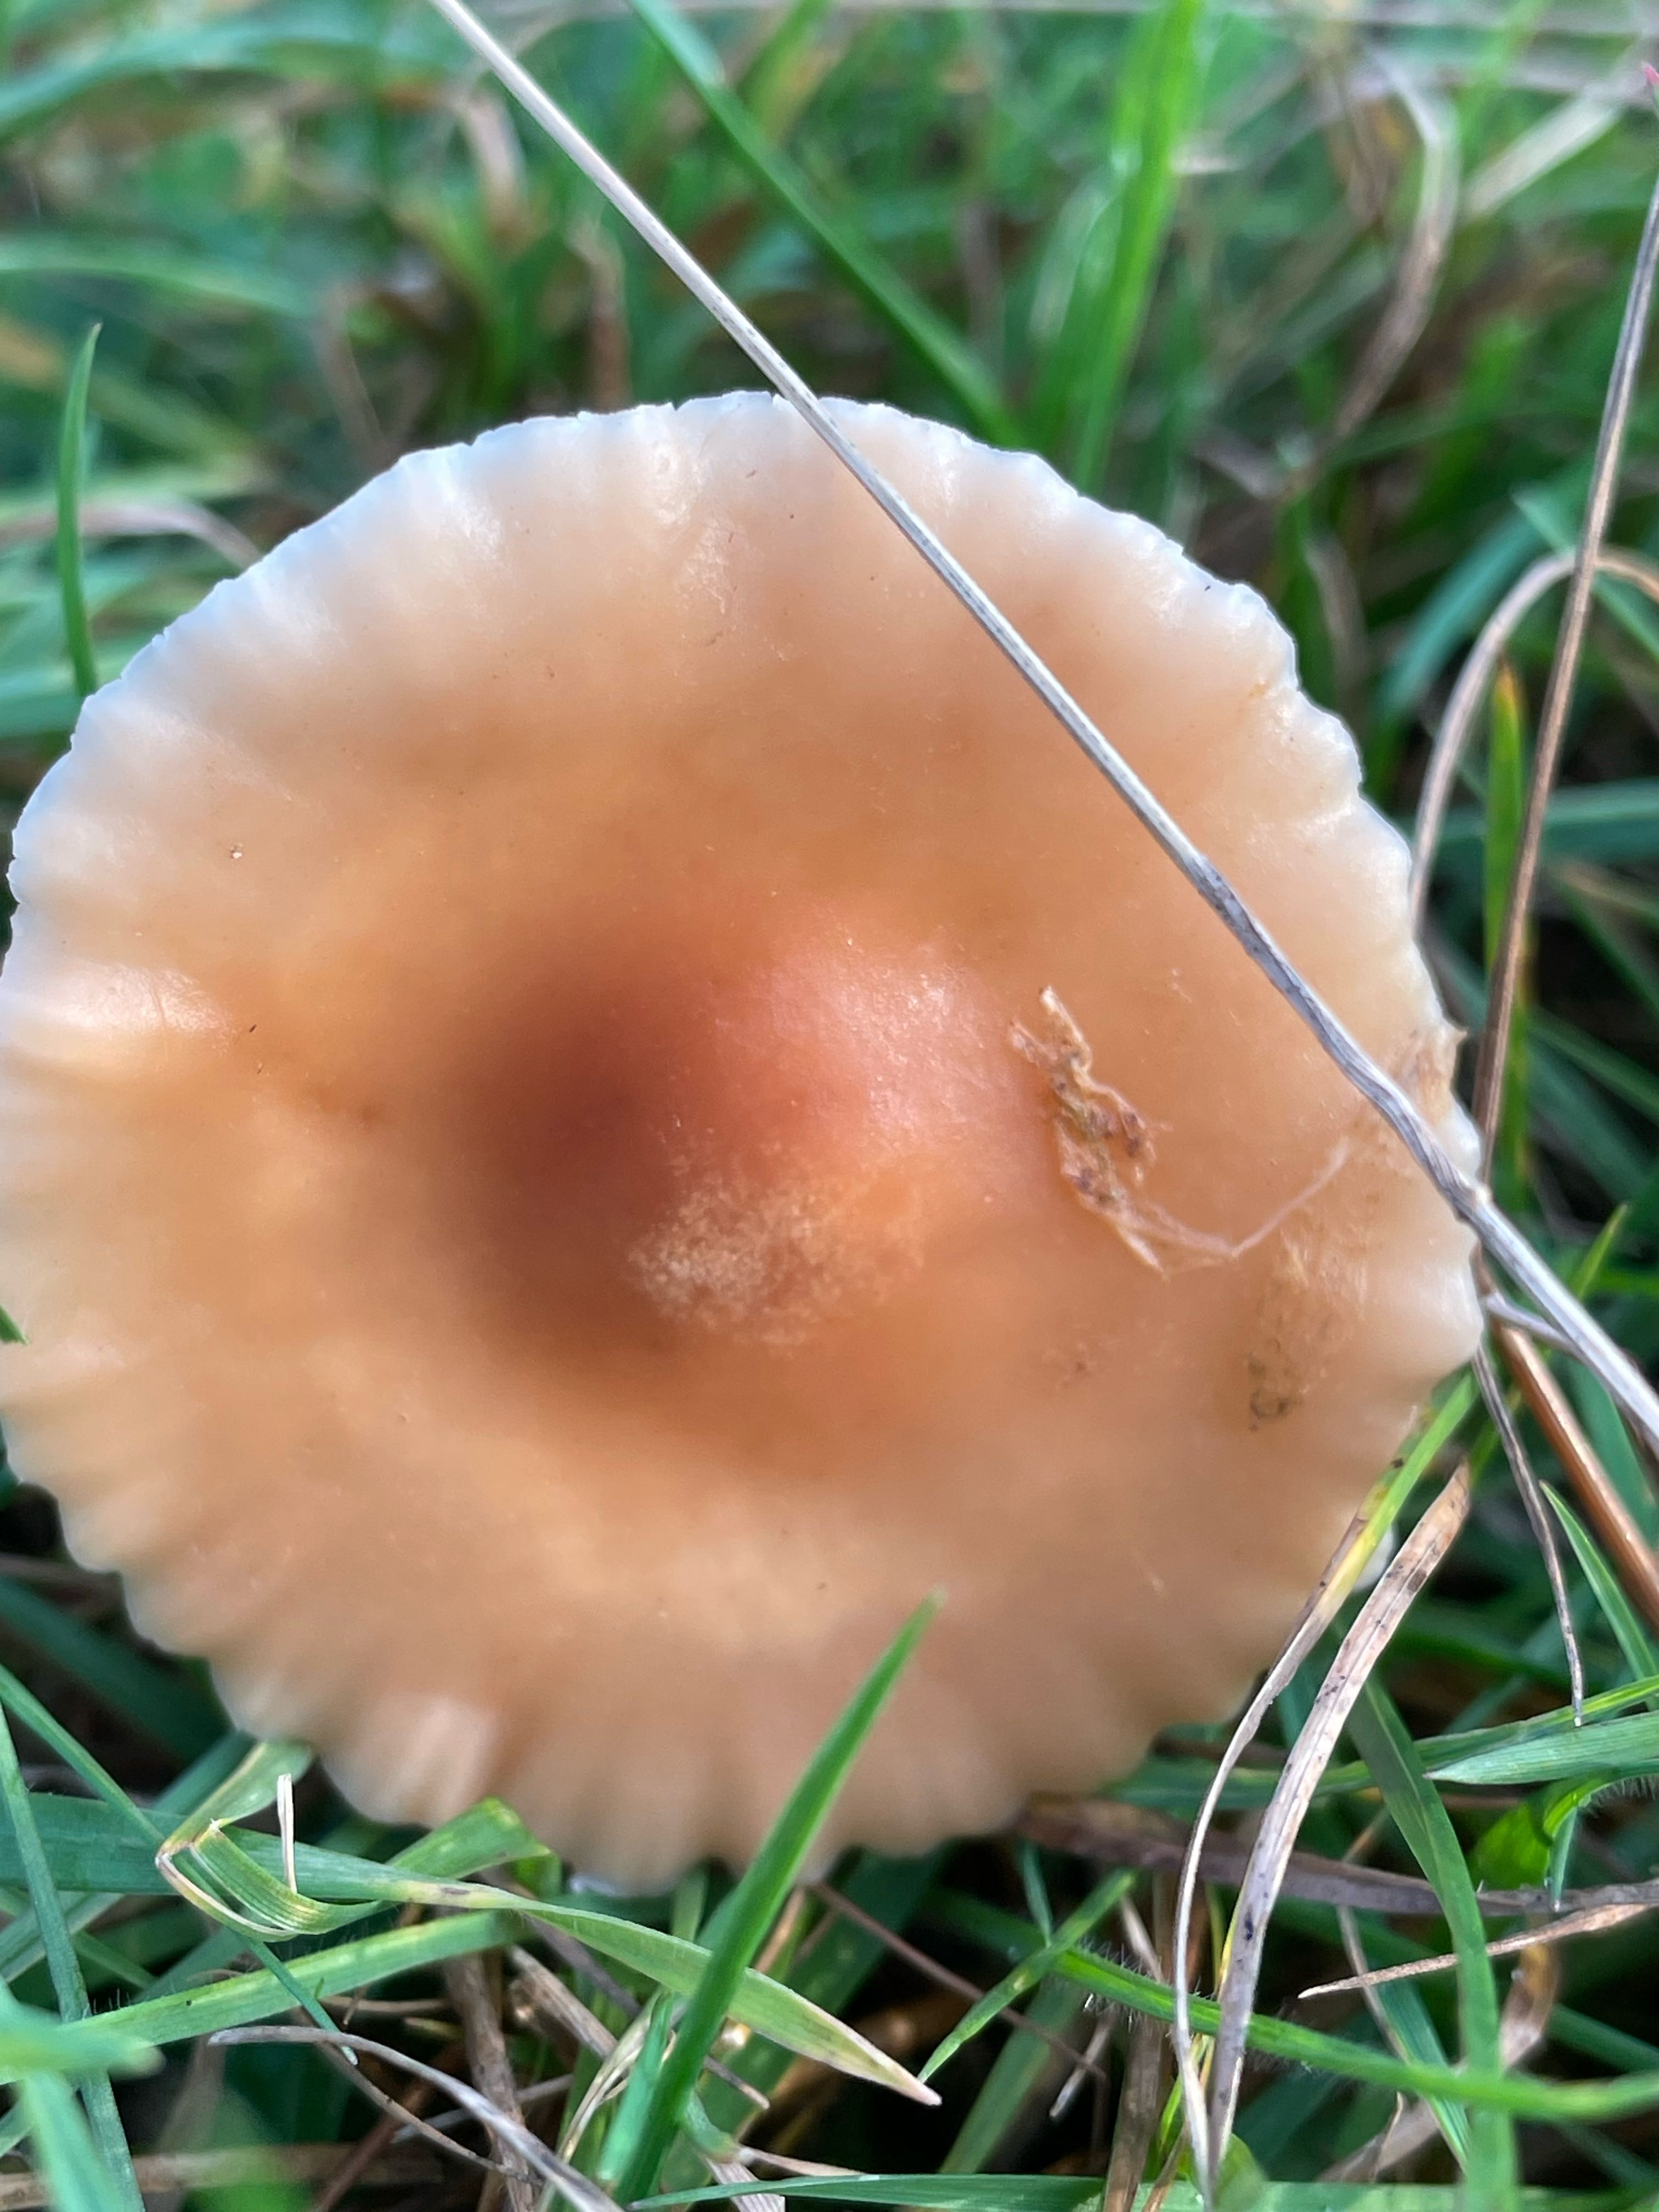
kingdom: Fungi
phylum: Basidiomycota
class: Agaricomycetes
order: Agaricales
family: Marasmiaceae
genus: Marasmius
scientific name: Marasmius oreades
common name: elledans-bruskhat
